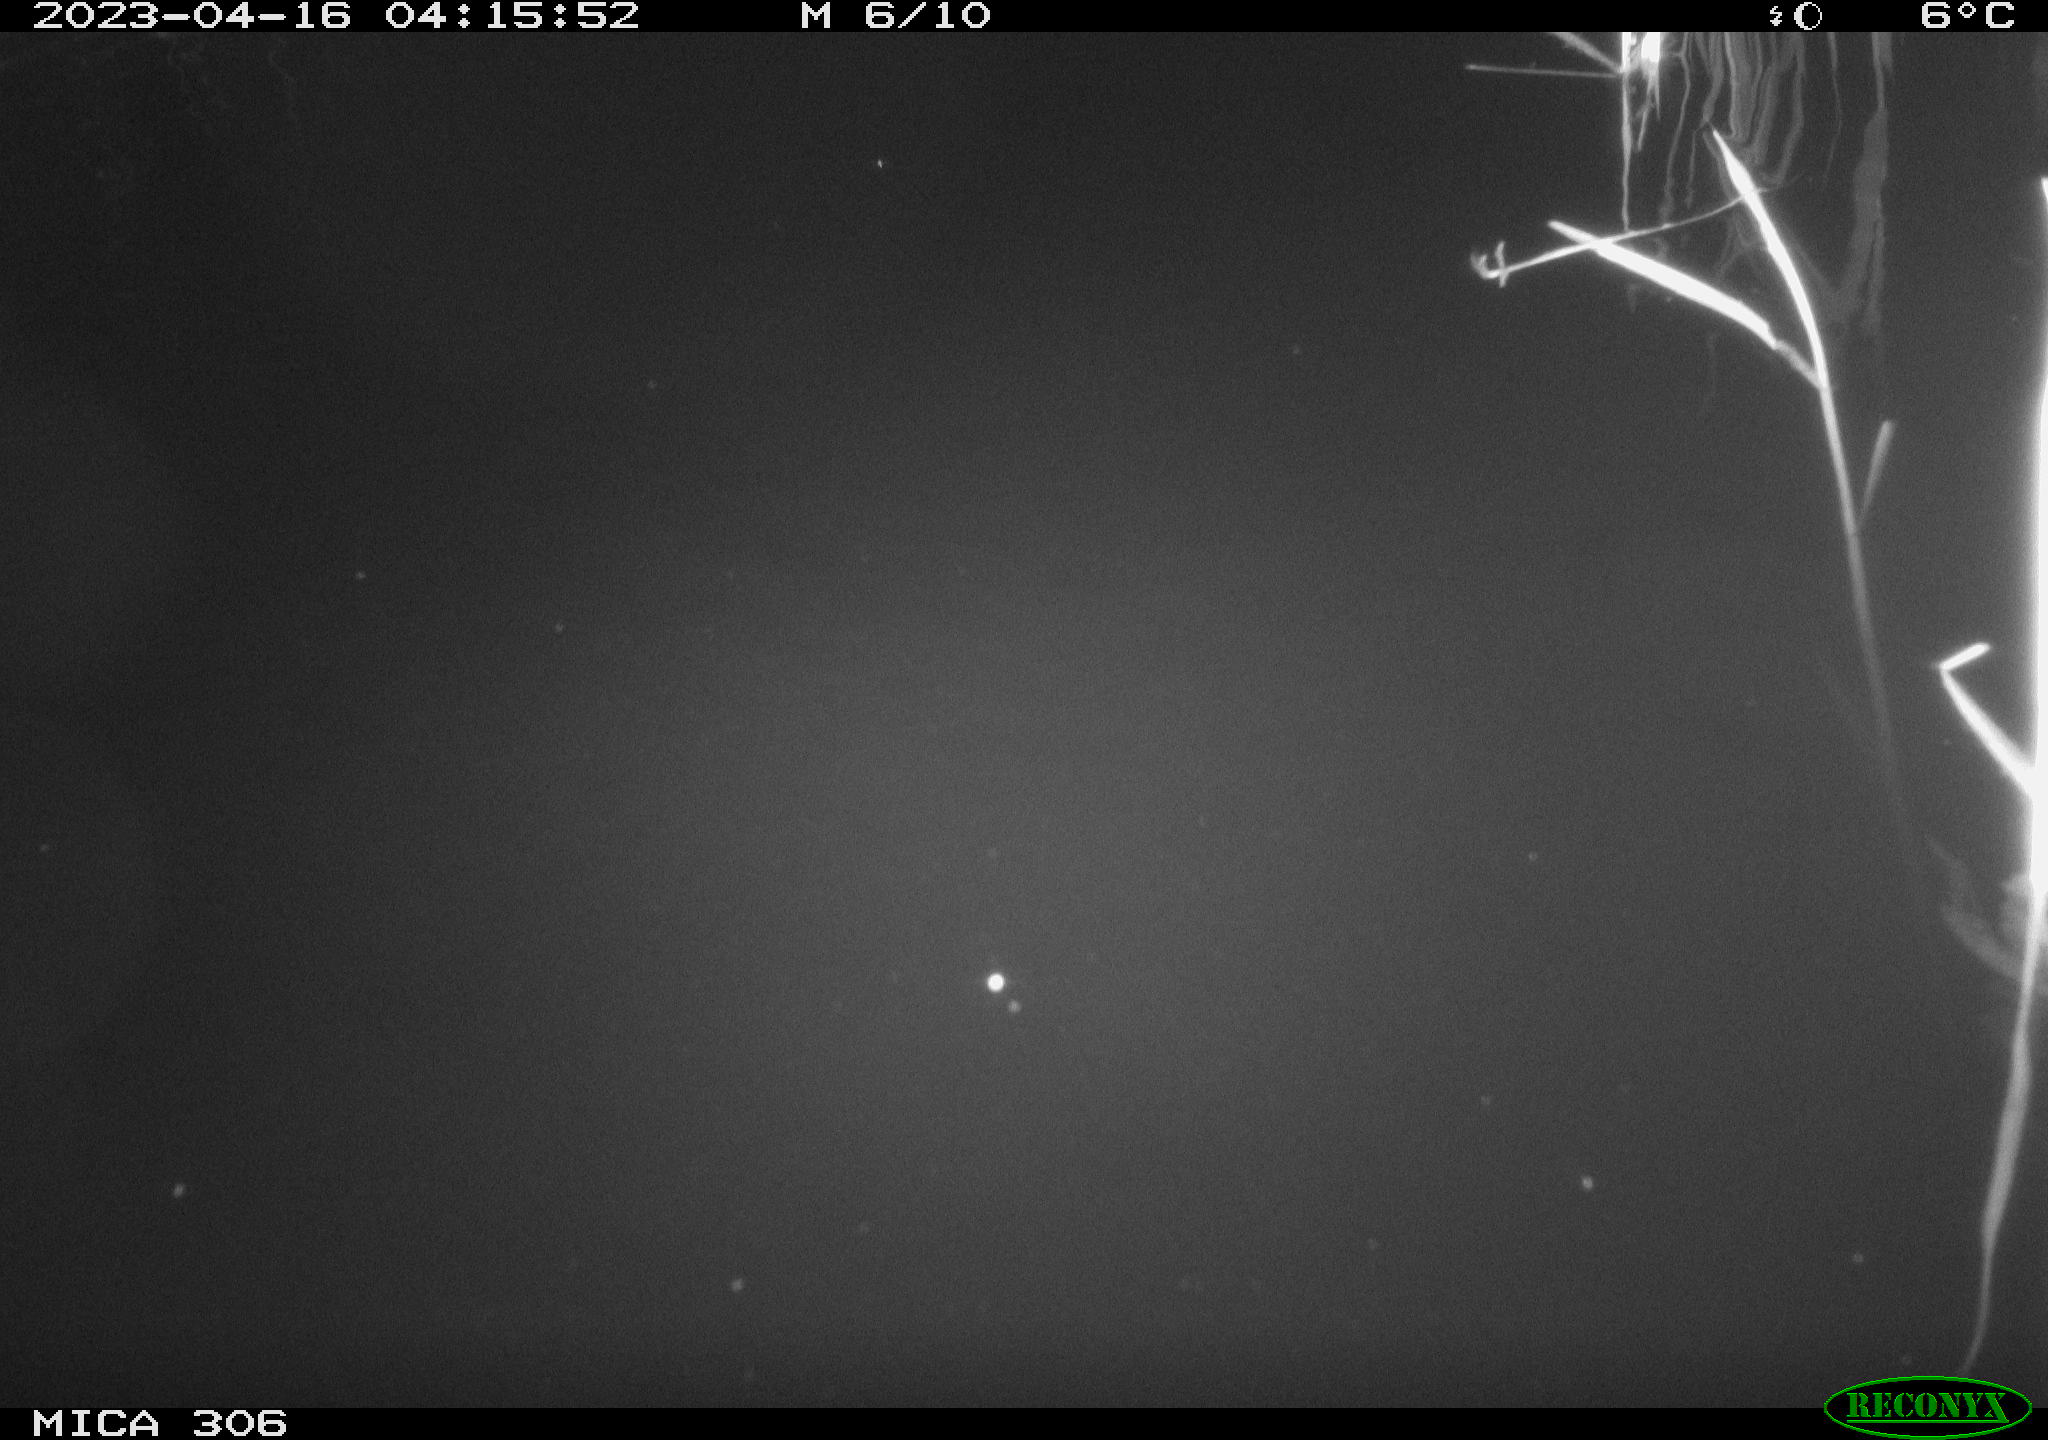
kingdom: Animalia
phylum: Chordata
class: Aves
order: Anseriformes
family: Anatidae
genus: Anas
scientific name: Anas
